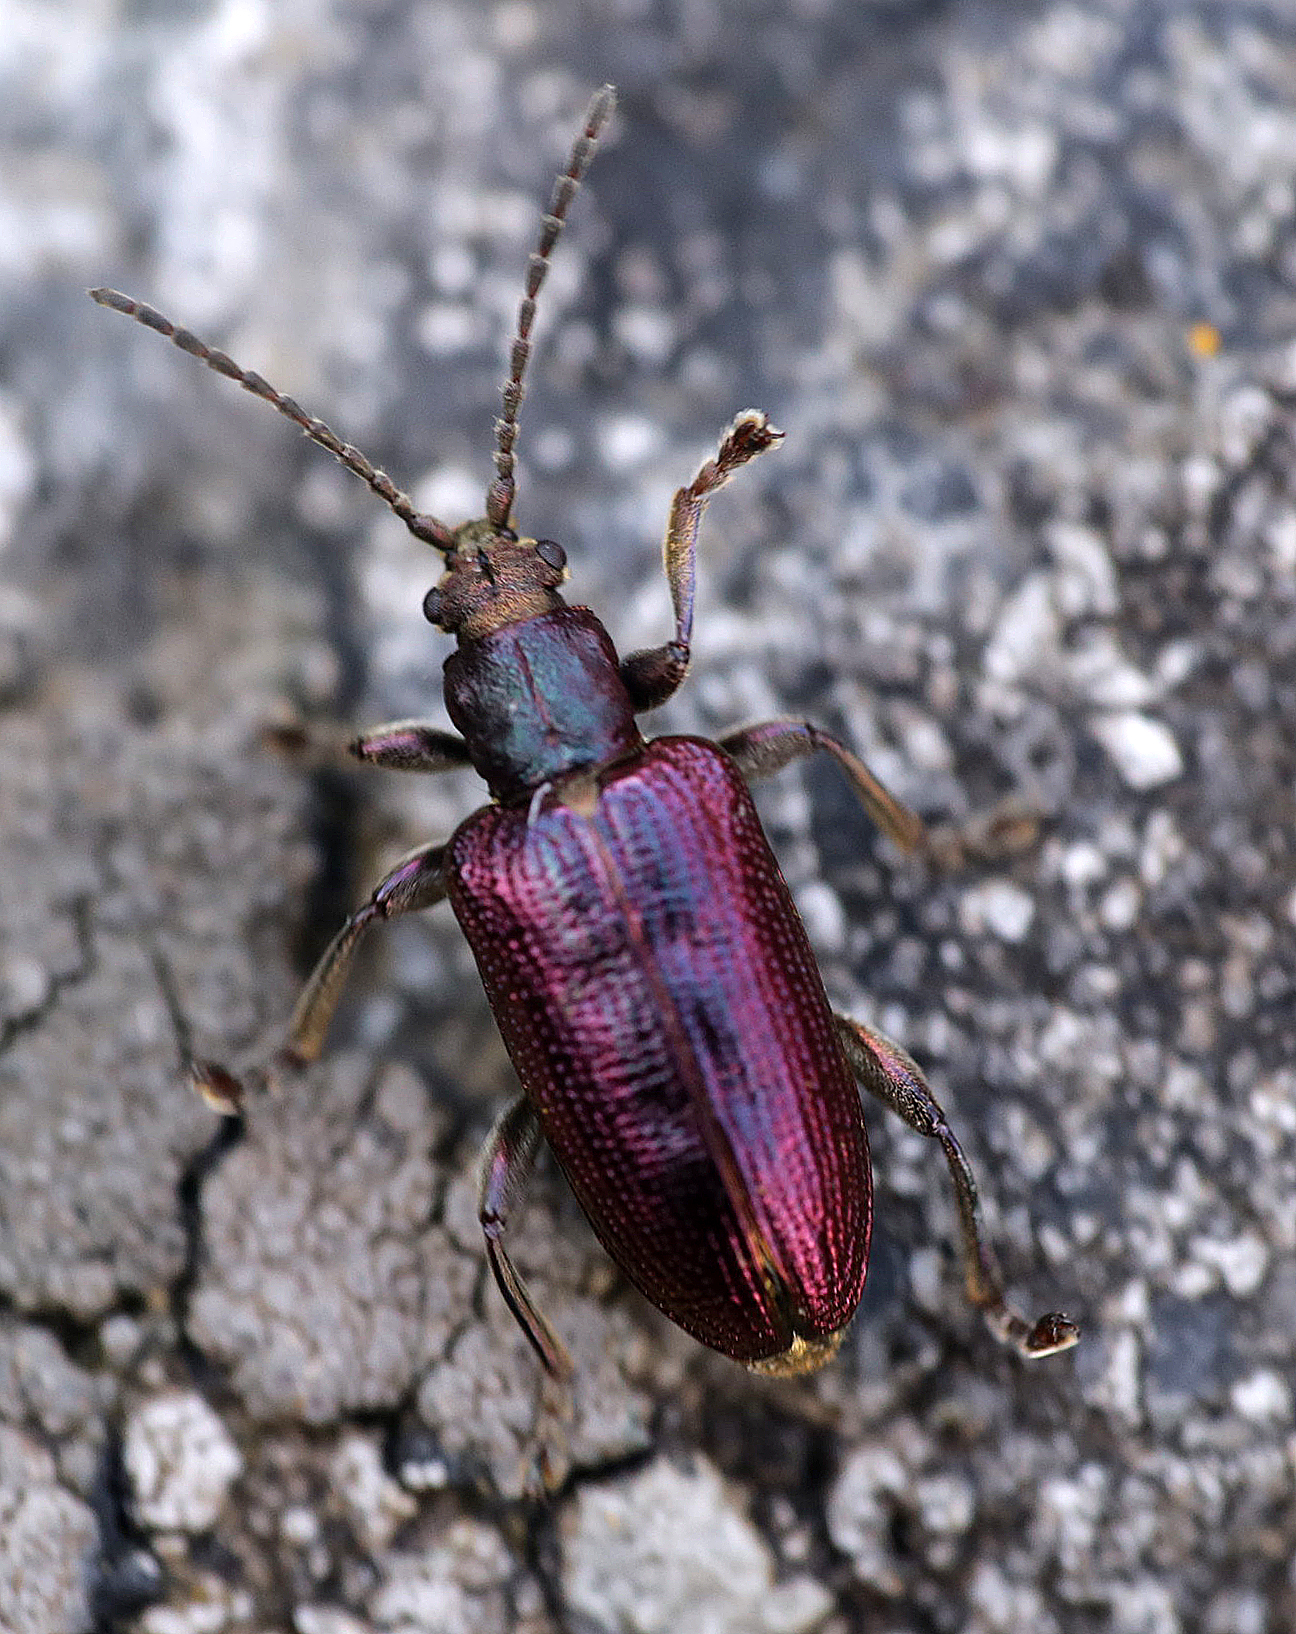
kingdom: Animalia
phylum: Arthropoda
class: Insecta
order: Coleoptera
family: Chrysomelidae
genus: Plateumaris
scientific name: Plateumaris discolor
